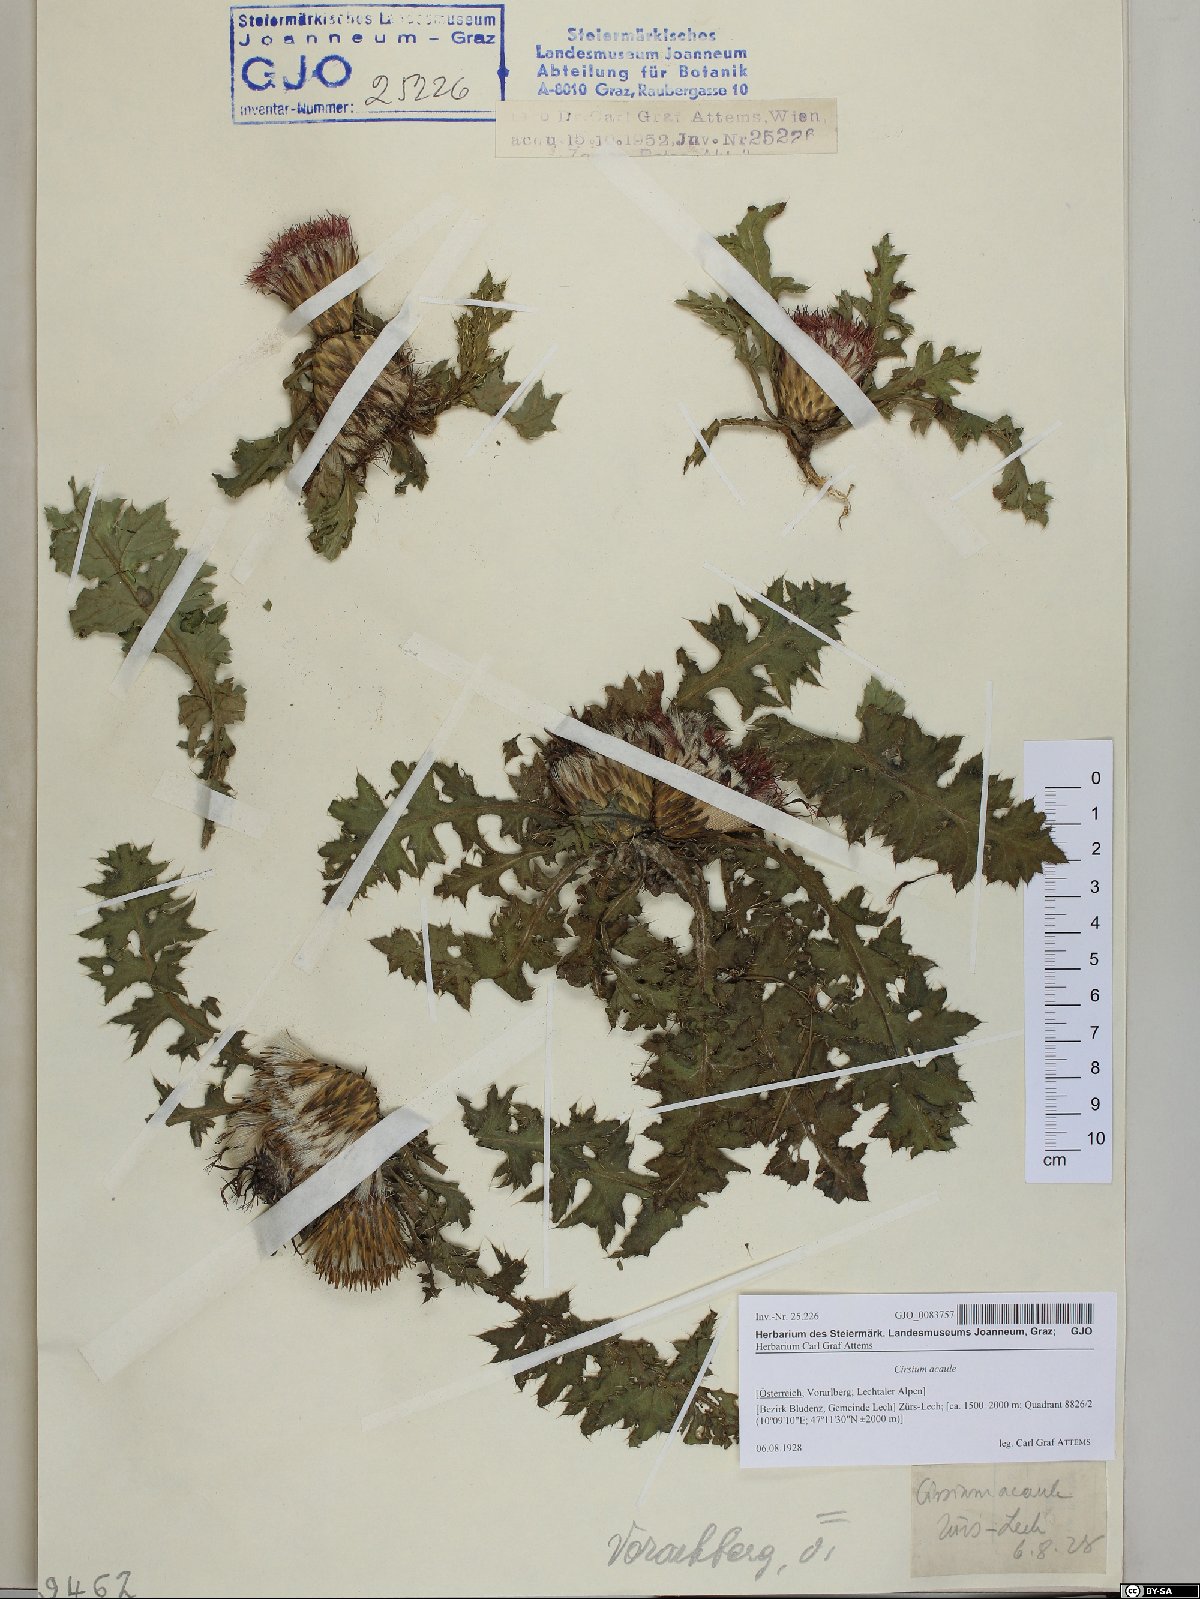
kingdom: Plantae
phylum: Tracheophyta
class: Magnoliopsida
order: Asterales
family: Asteraceae
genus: Cirsium
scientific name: Cirsium acaulon
